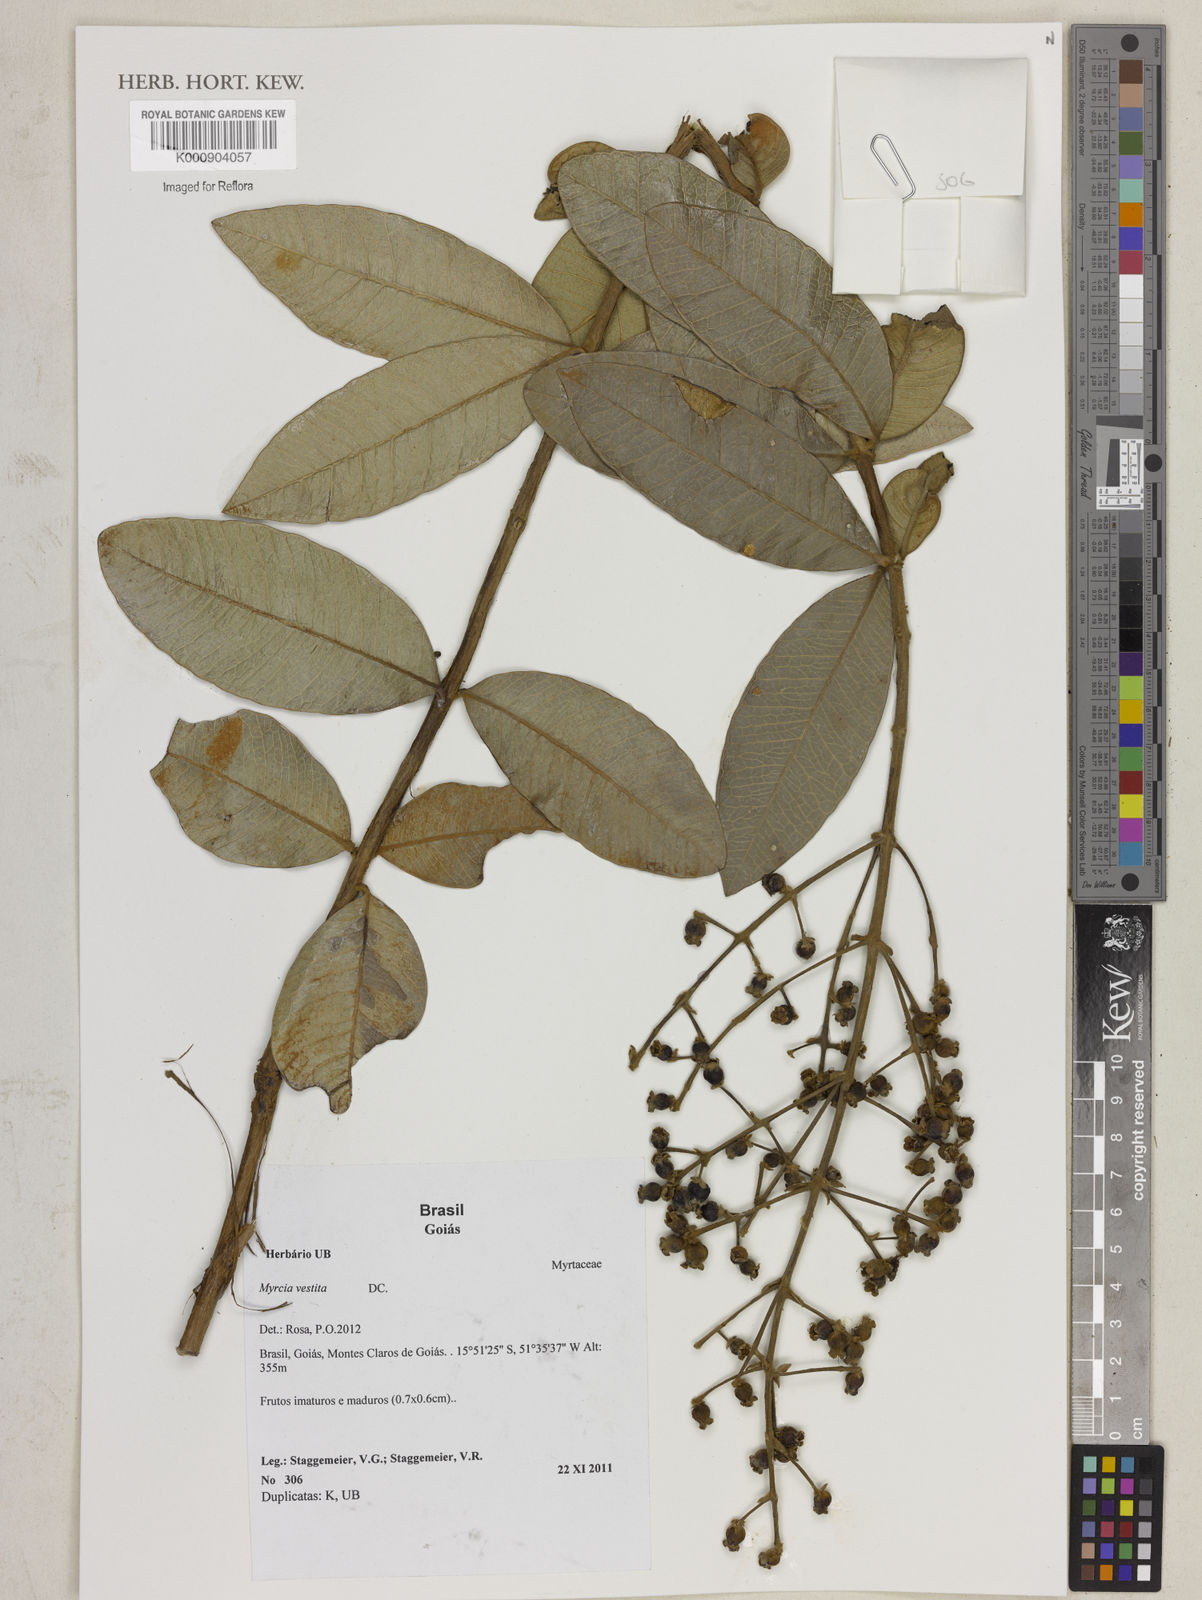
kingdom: Plantae
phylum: Tracheophyta
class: Magnoliopsida
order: Myrtales
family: Myrtaceae
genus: Myrcia
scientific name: Myrcia vestita
